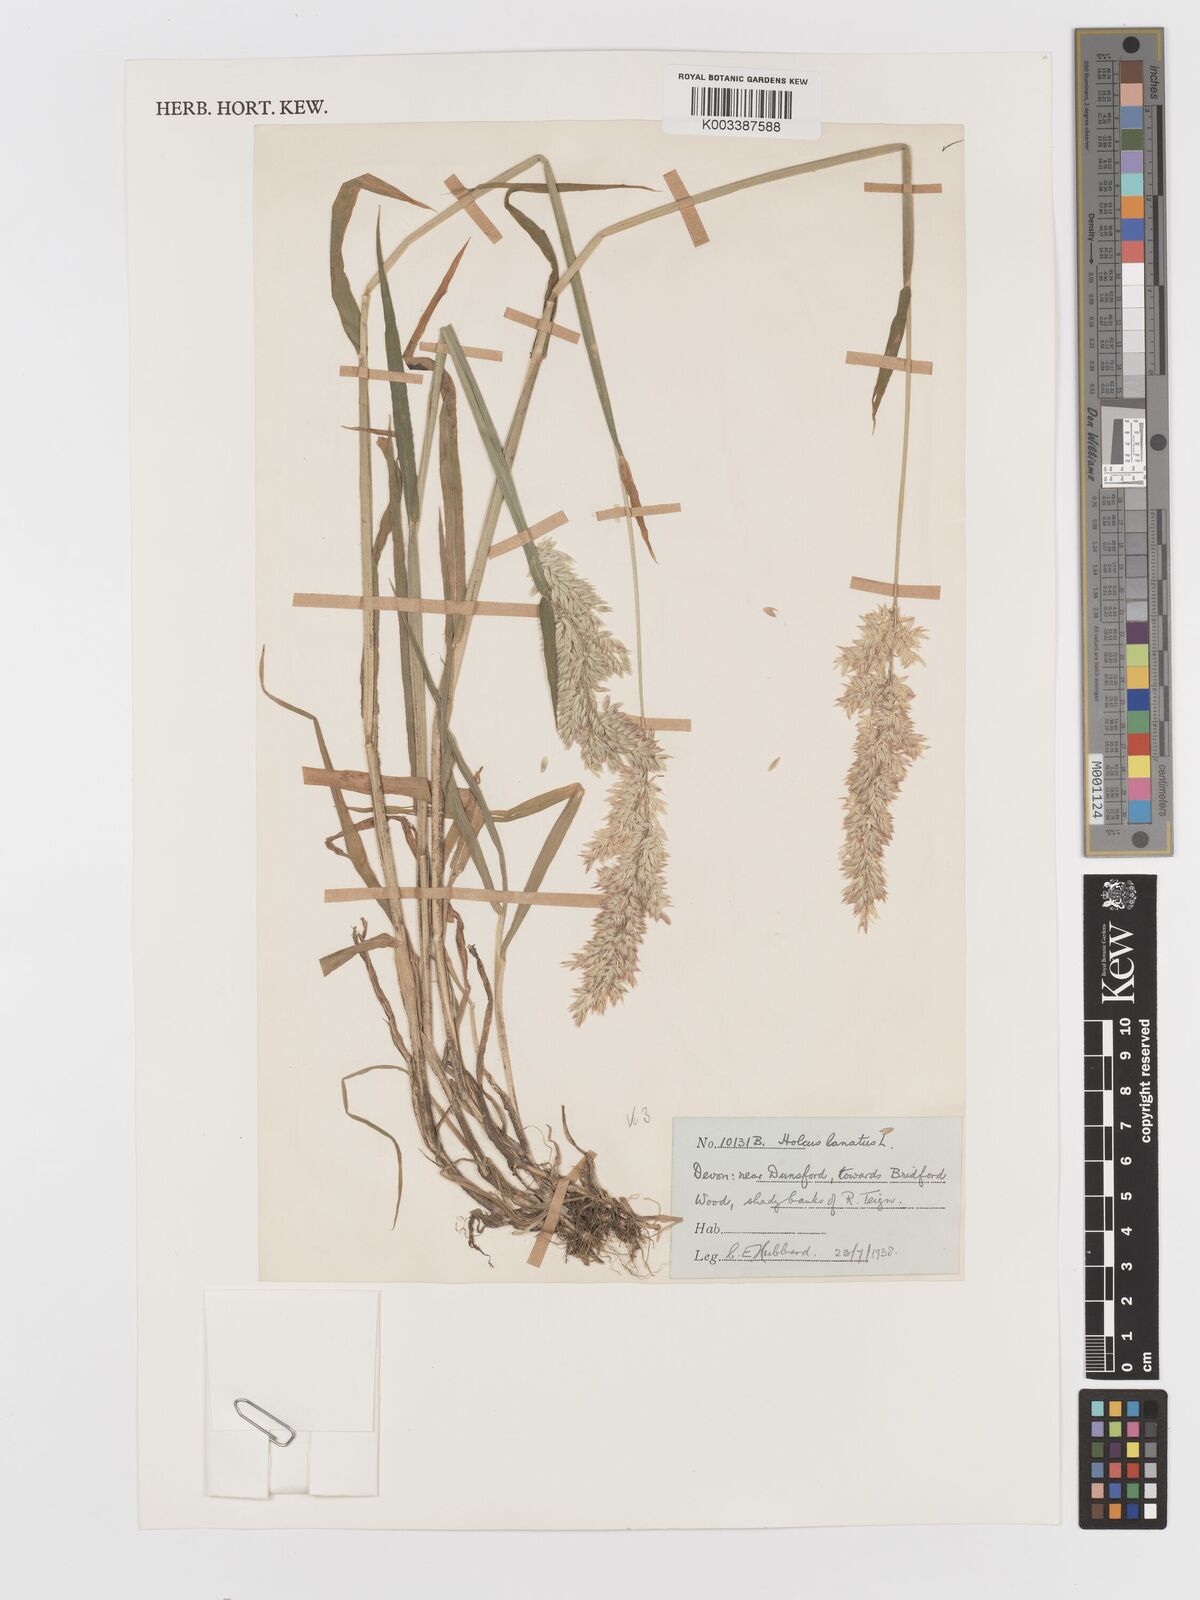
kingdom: Plantae
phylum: Tracheophyta
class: Liliopsida
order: Poales
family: Poaceae
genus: Holcus
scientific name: Holcus lanatus
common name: Yorkshire-fog
